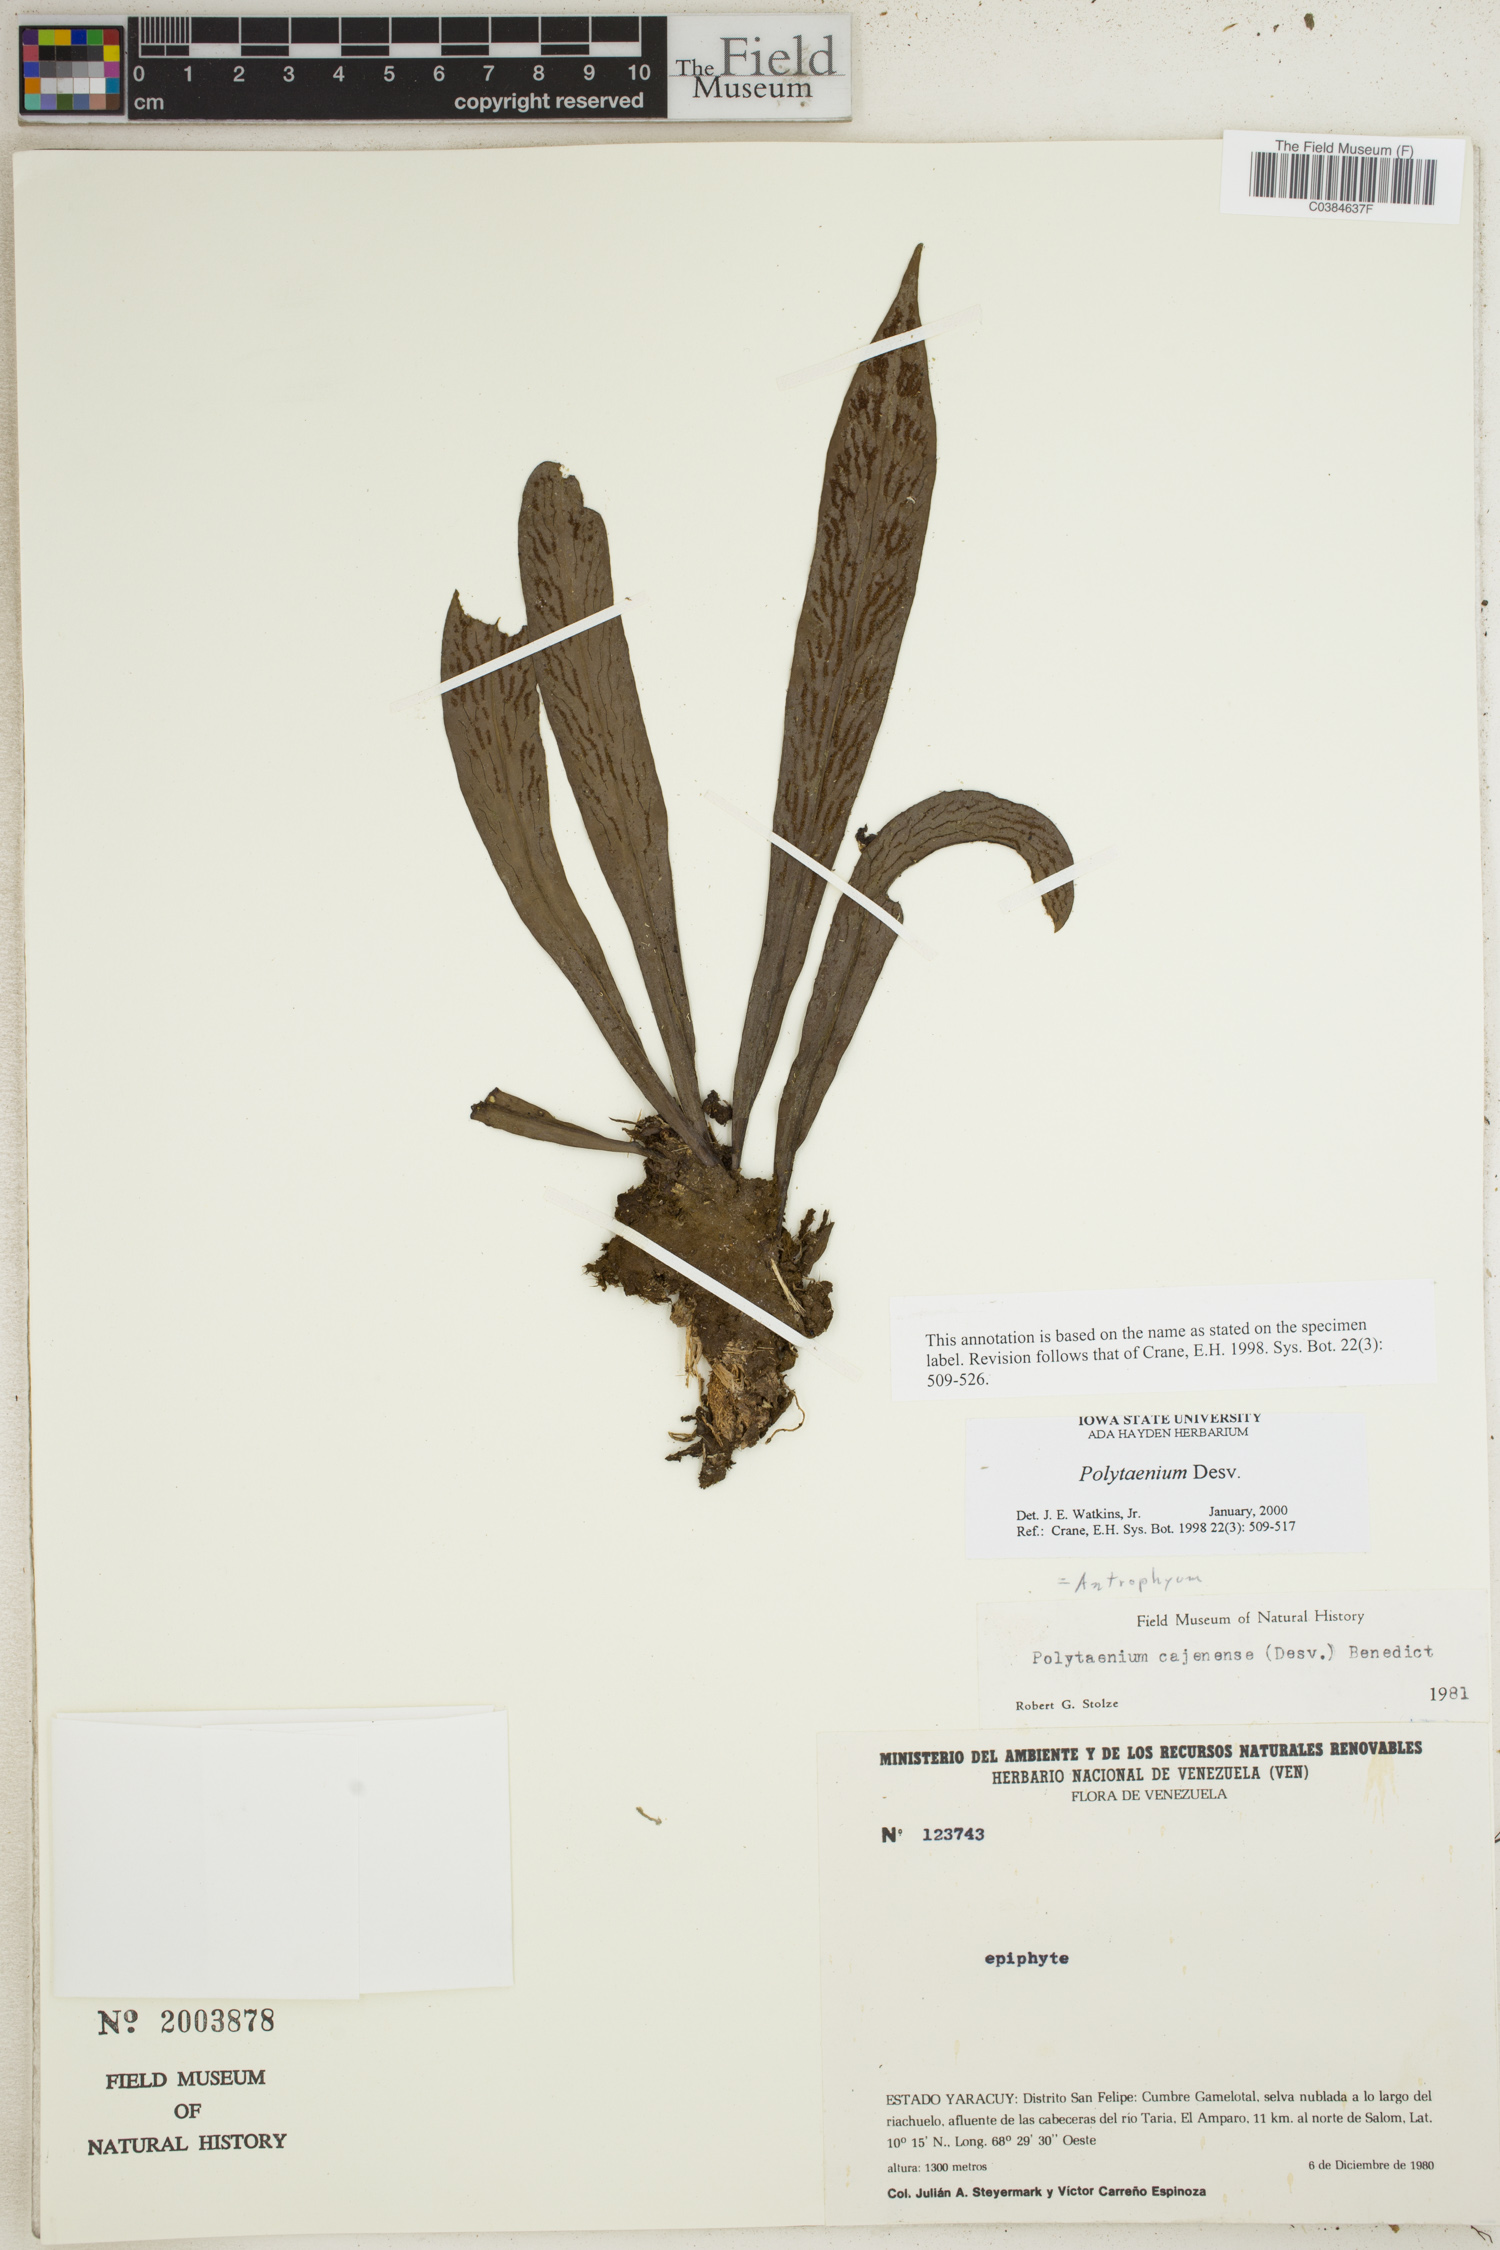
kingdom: Plantae
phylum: Tracheophyta
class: Polypodiopsida
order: Polypodiales
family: Pteridaceae
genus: Polytaenium
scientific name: Polytaenium
